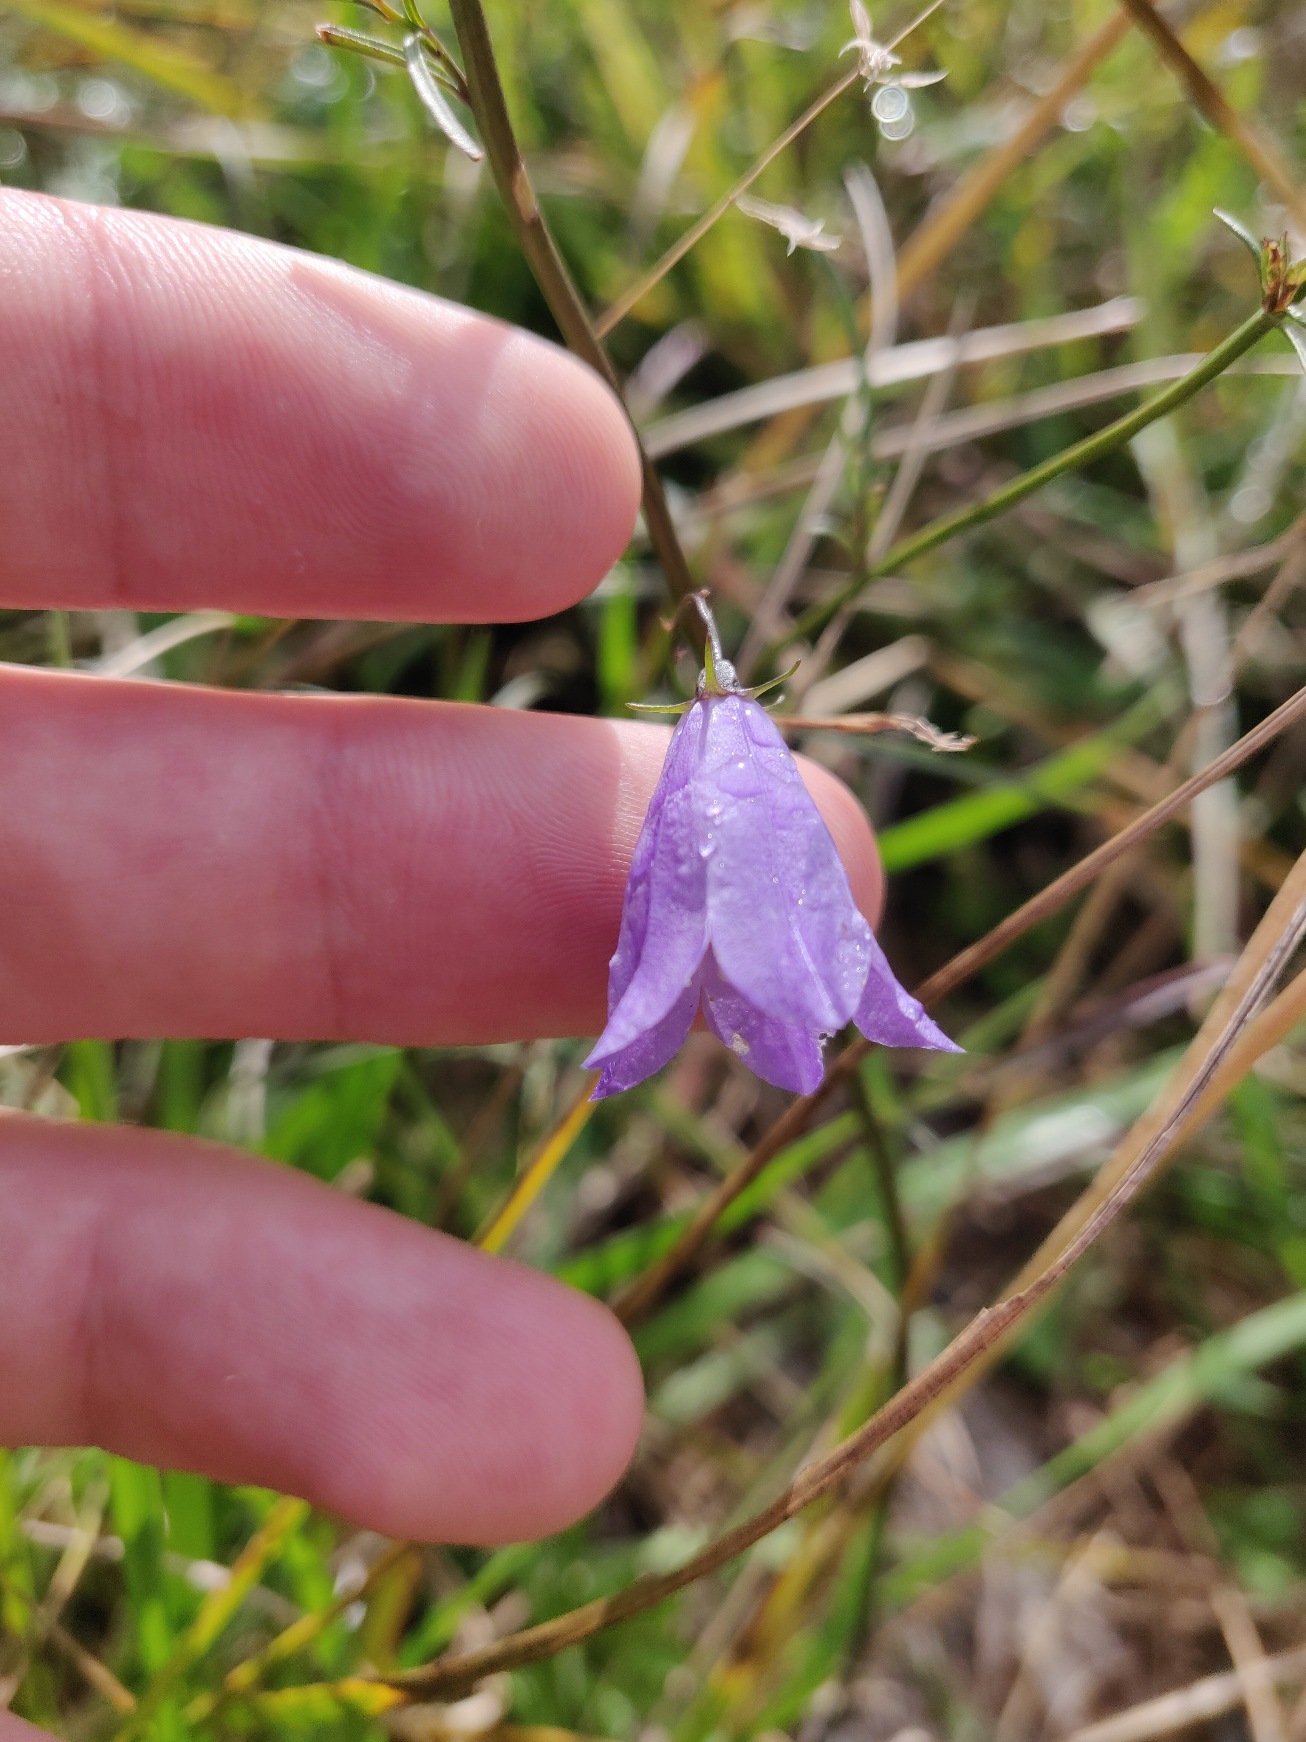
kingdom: Plantae
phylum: Tracheophyta
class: Magnoliopsida
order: Asterales
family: Campanulaceae
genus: Campanula
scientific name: Campanula rotundifolia
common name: Liden klokke
